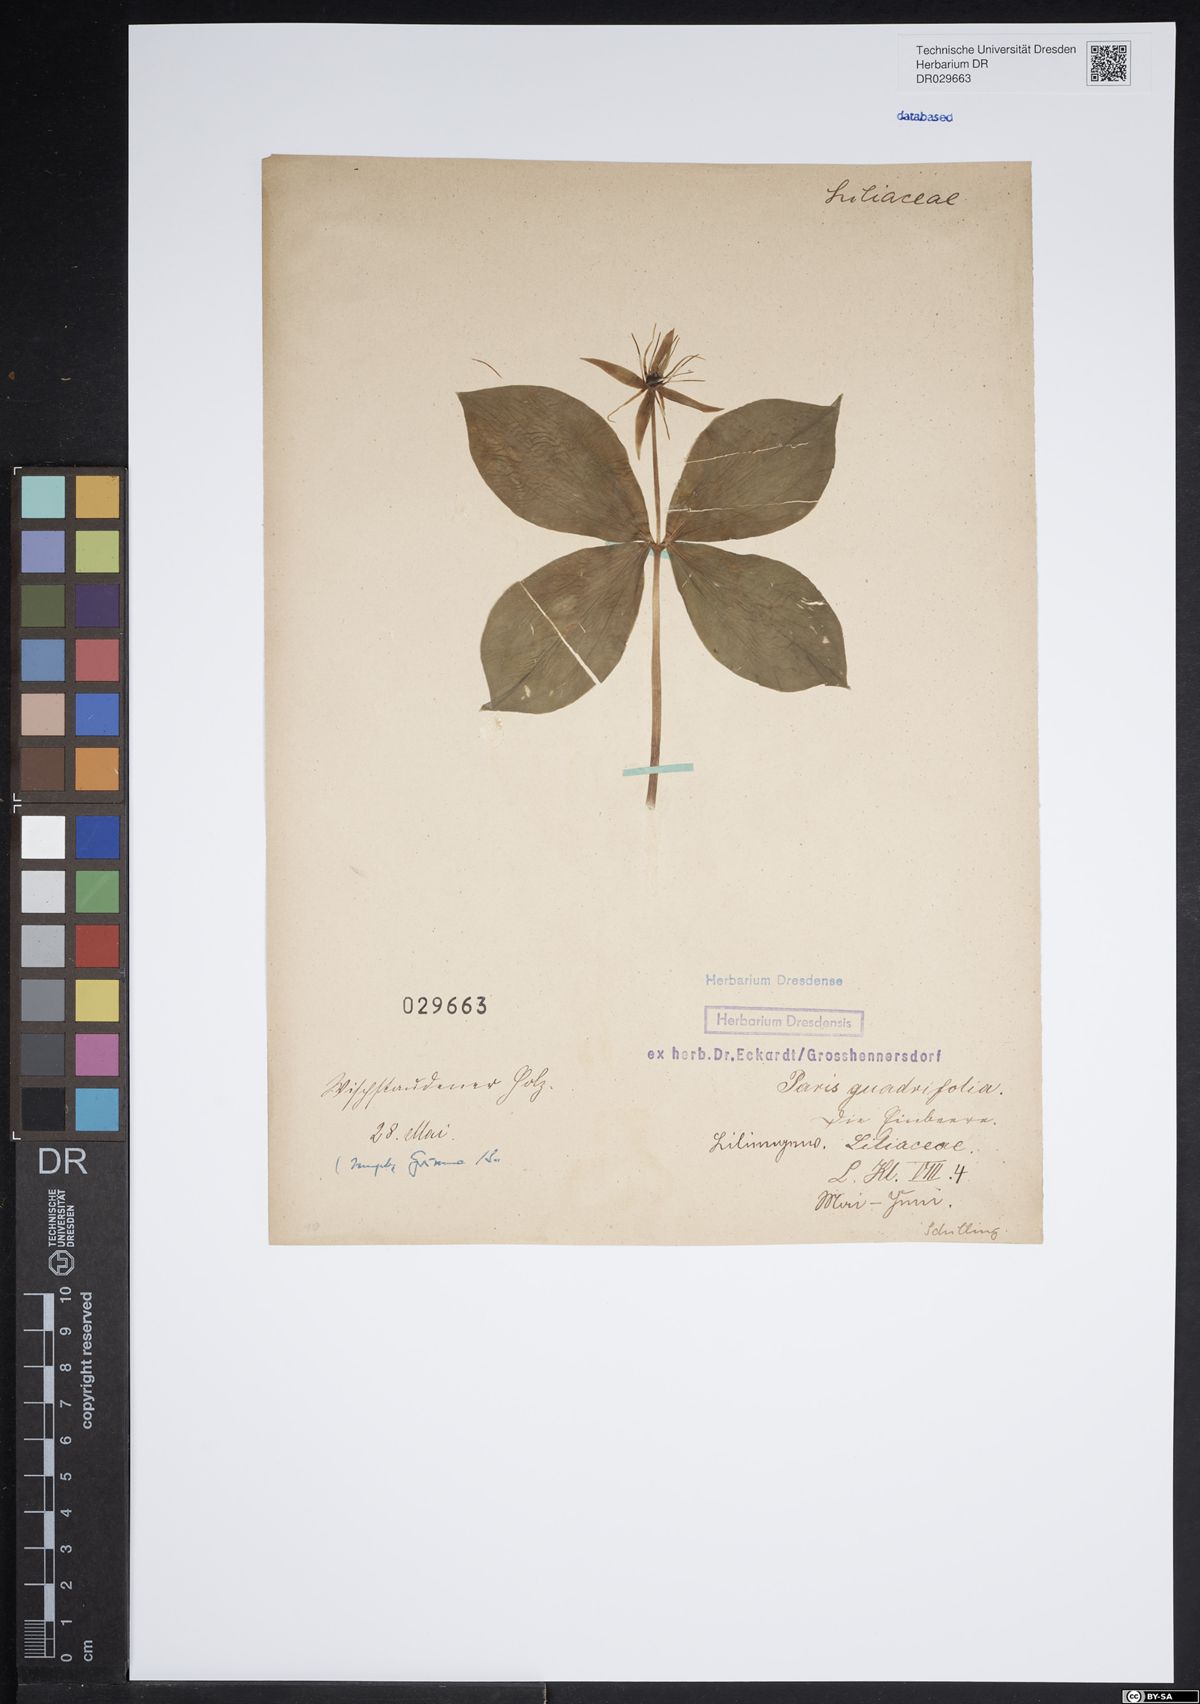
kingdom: Plantae
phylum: Tracheophyta
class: Liliopsida
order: Liliales
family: Melanthiaceae
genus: Paris
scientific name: Paris quadrifolia
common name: Herb-paris
